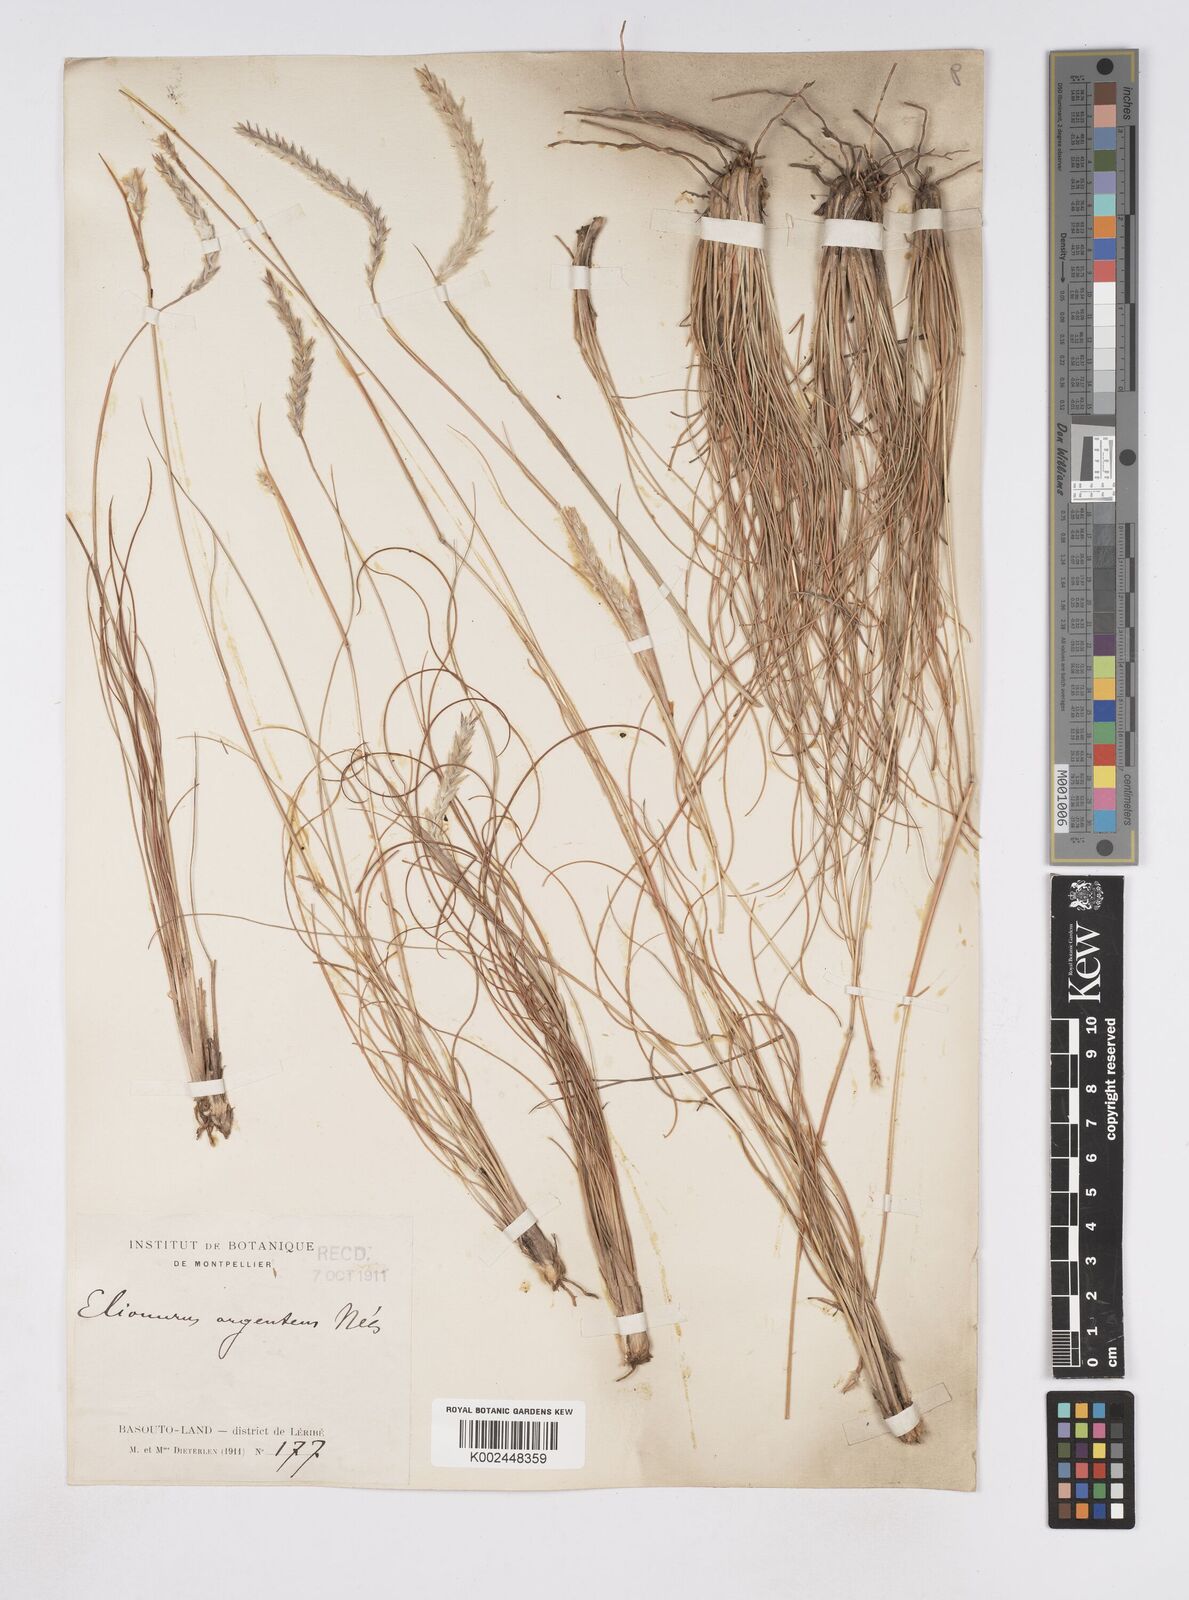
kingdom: Plantae
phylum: Tracheophyta
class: Liliopsida
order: Poales
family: Poaceae
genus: Elionurus
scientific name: Elionurus muticus
